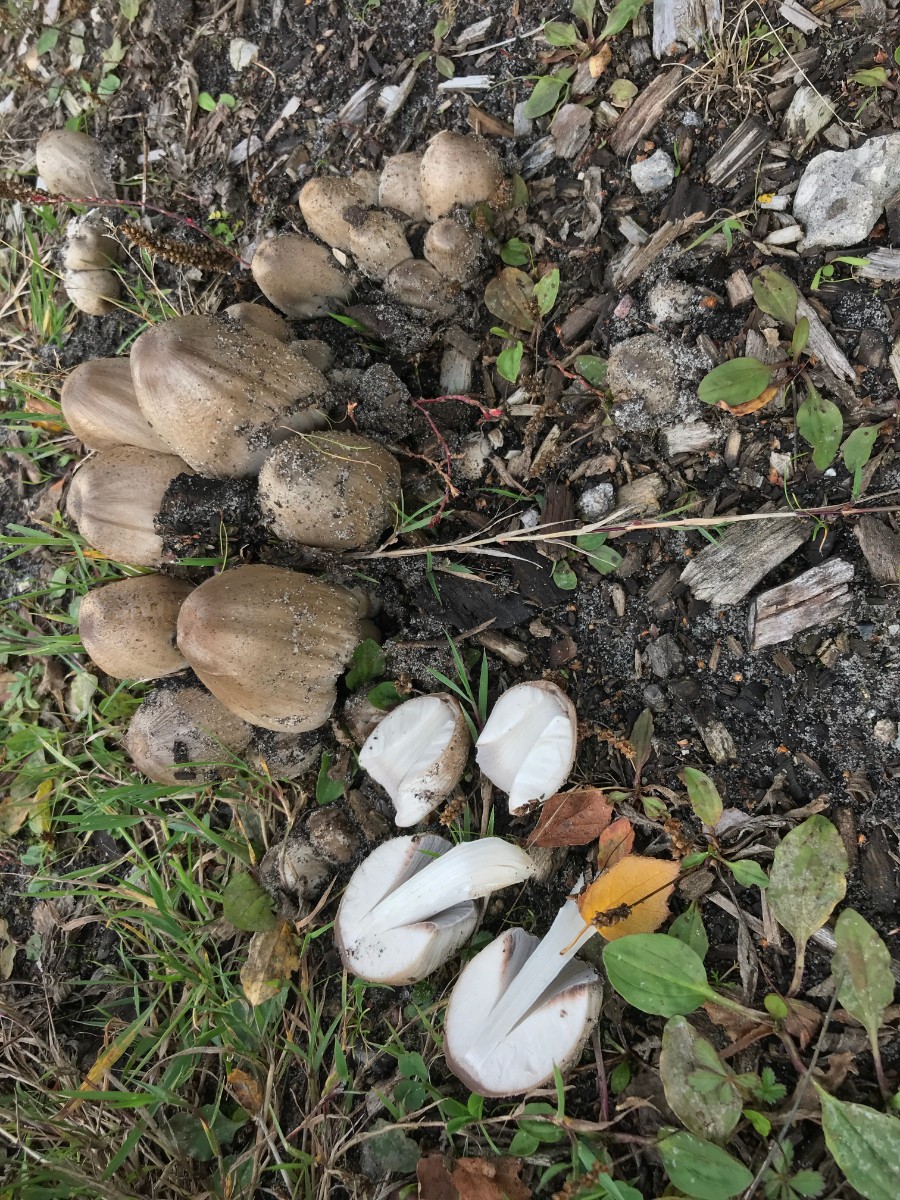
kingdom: Fungi
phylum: Basidiomycota
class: Agaricomycetes
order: Agaricales
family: Psathyrellaceae
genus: Coprinopsis
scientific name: Coprinopsis atramentaria
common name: almindelig blækhat
